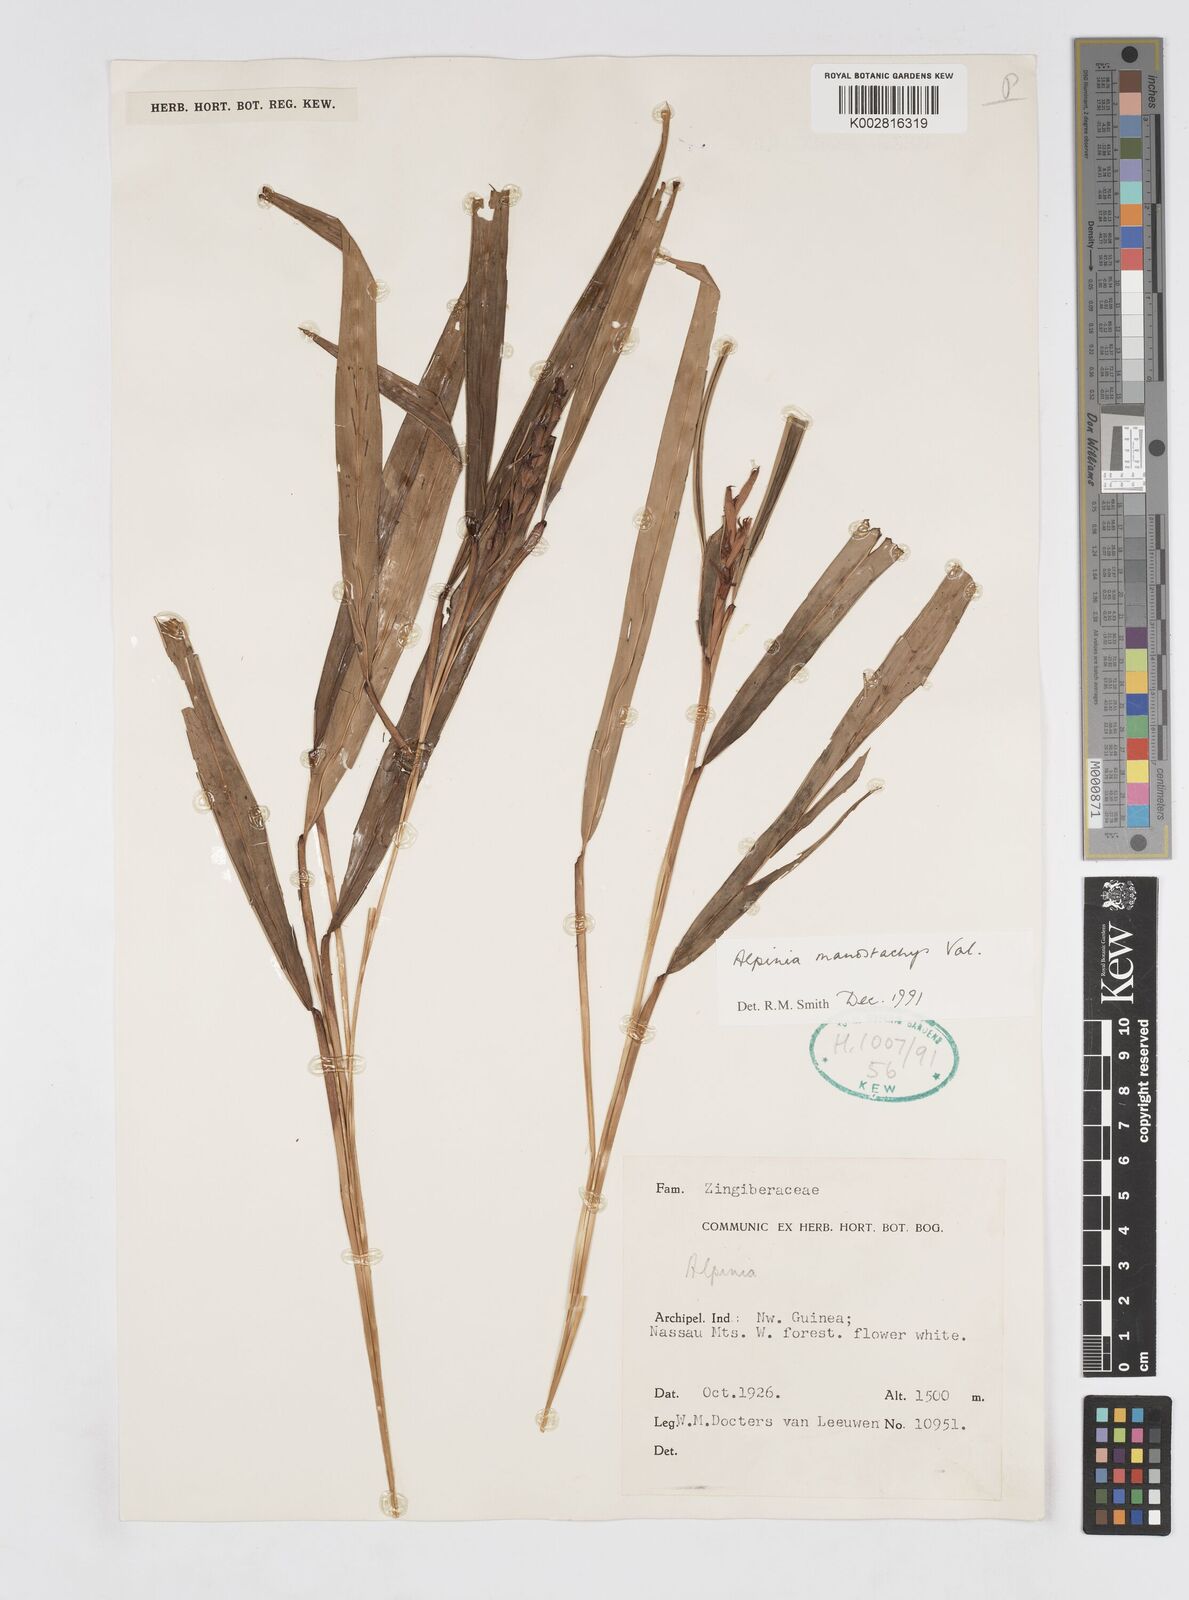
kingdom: Plantae
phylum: Tracheophyta
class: Liliopsida
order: Zingiberales
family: Zingiberaceae
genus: Alpinia
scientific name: Alpinia manostachys
